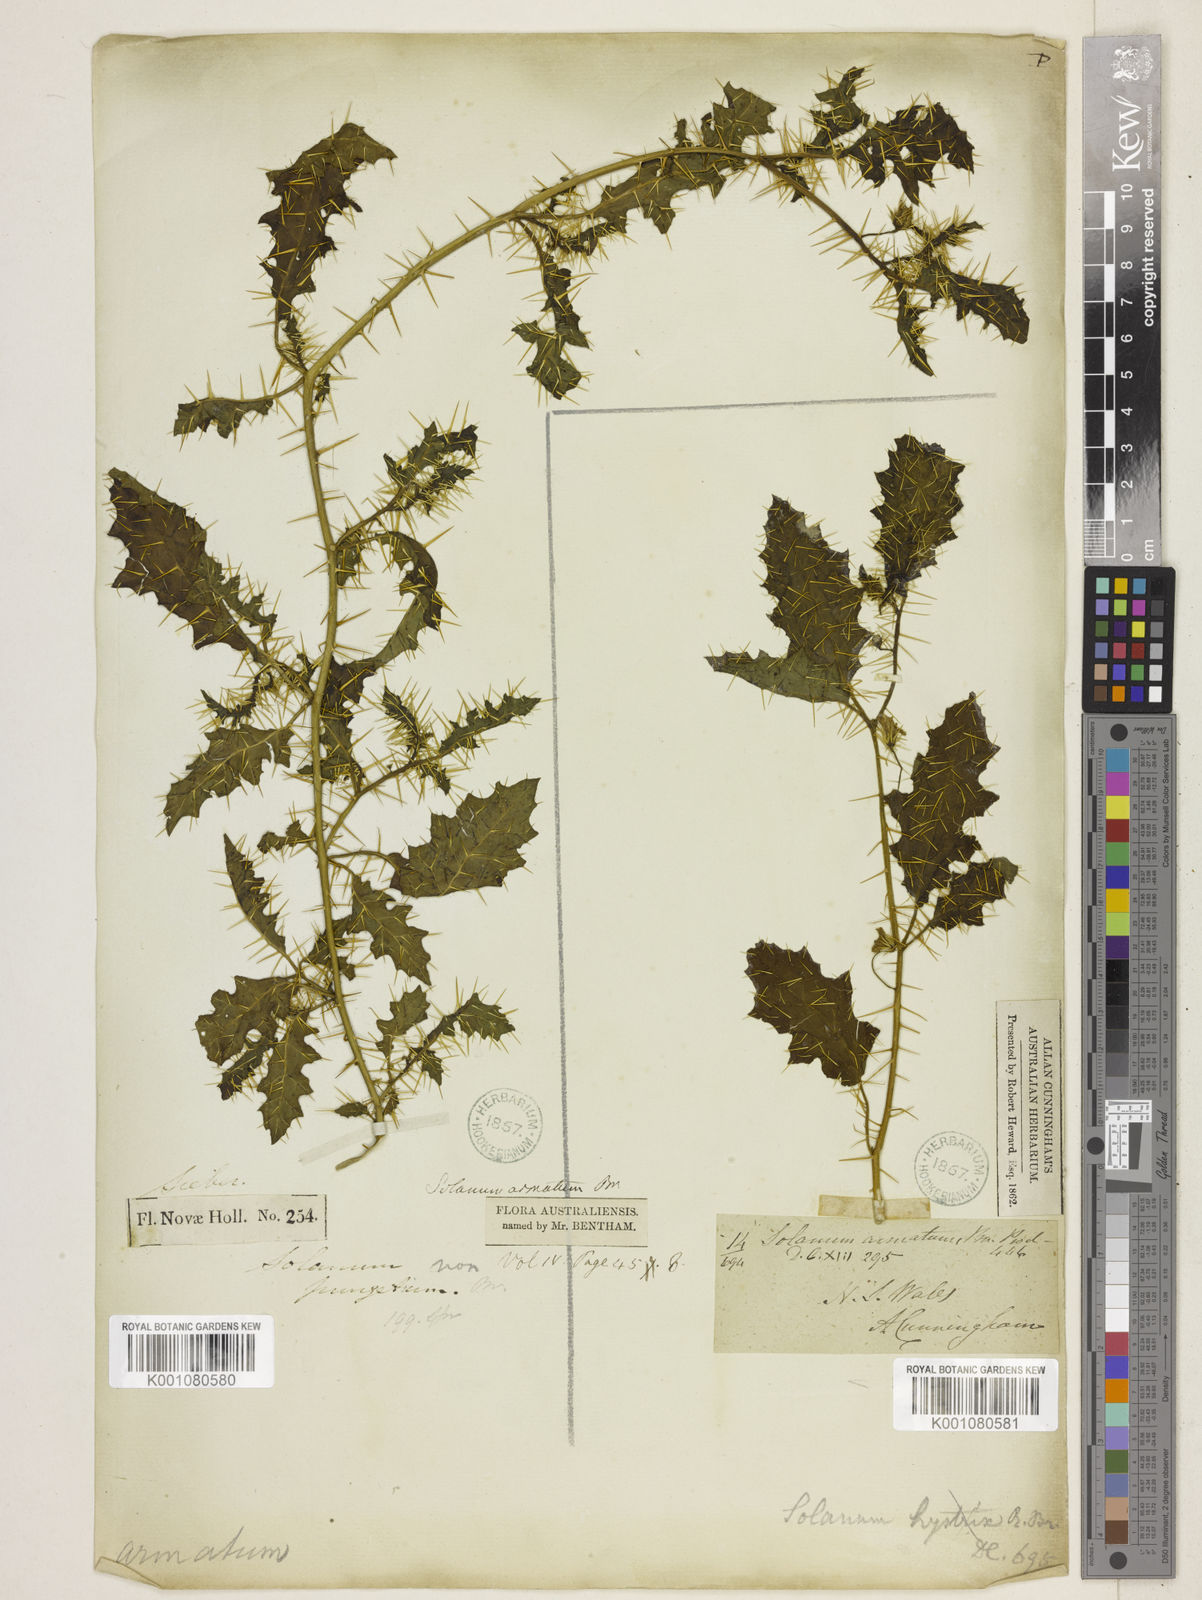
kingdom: Plantae
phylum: Tracheophyta
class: Magnoliopsida
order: Solanales
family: Solanaceae
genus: Solanum
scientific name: Solanum prinophyllum
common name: Forest nightshade
